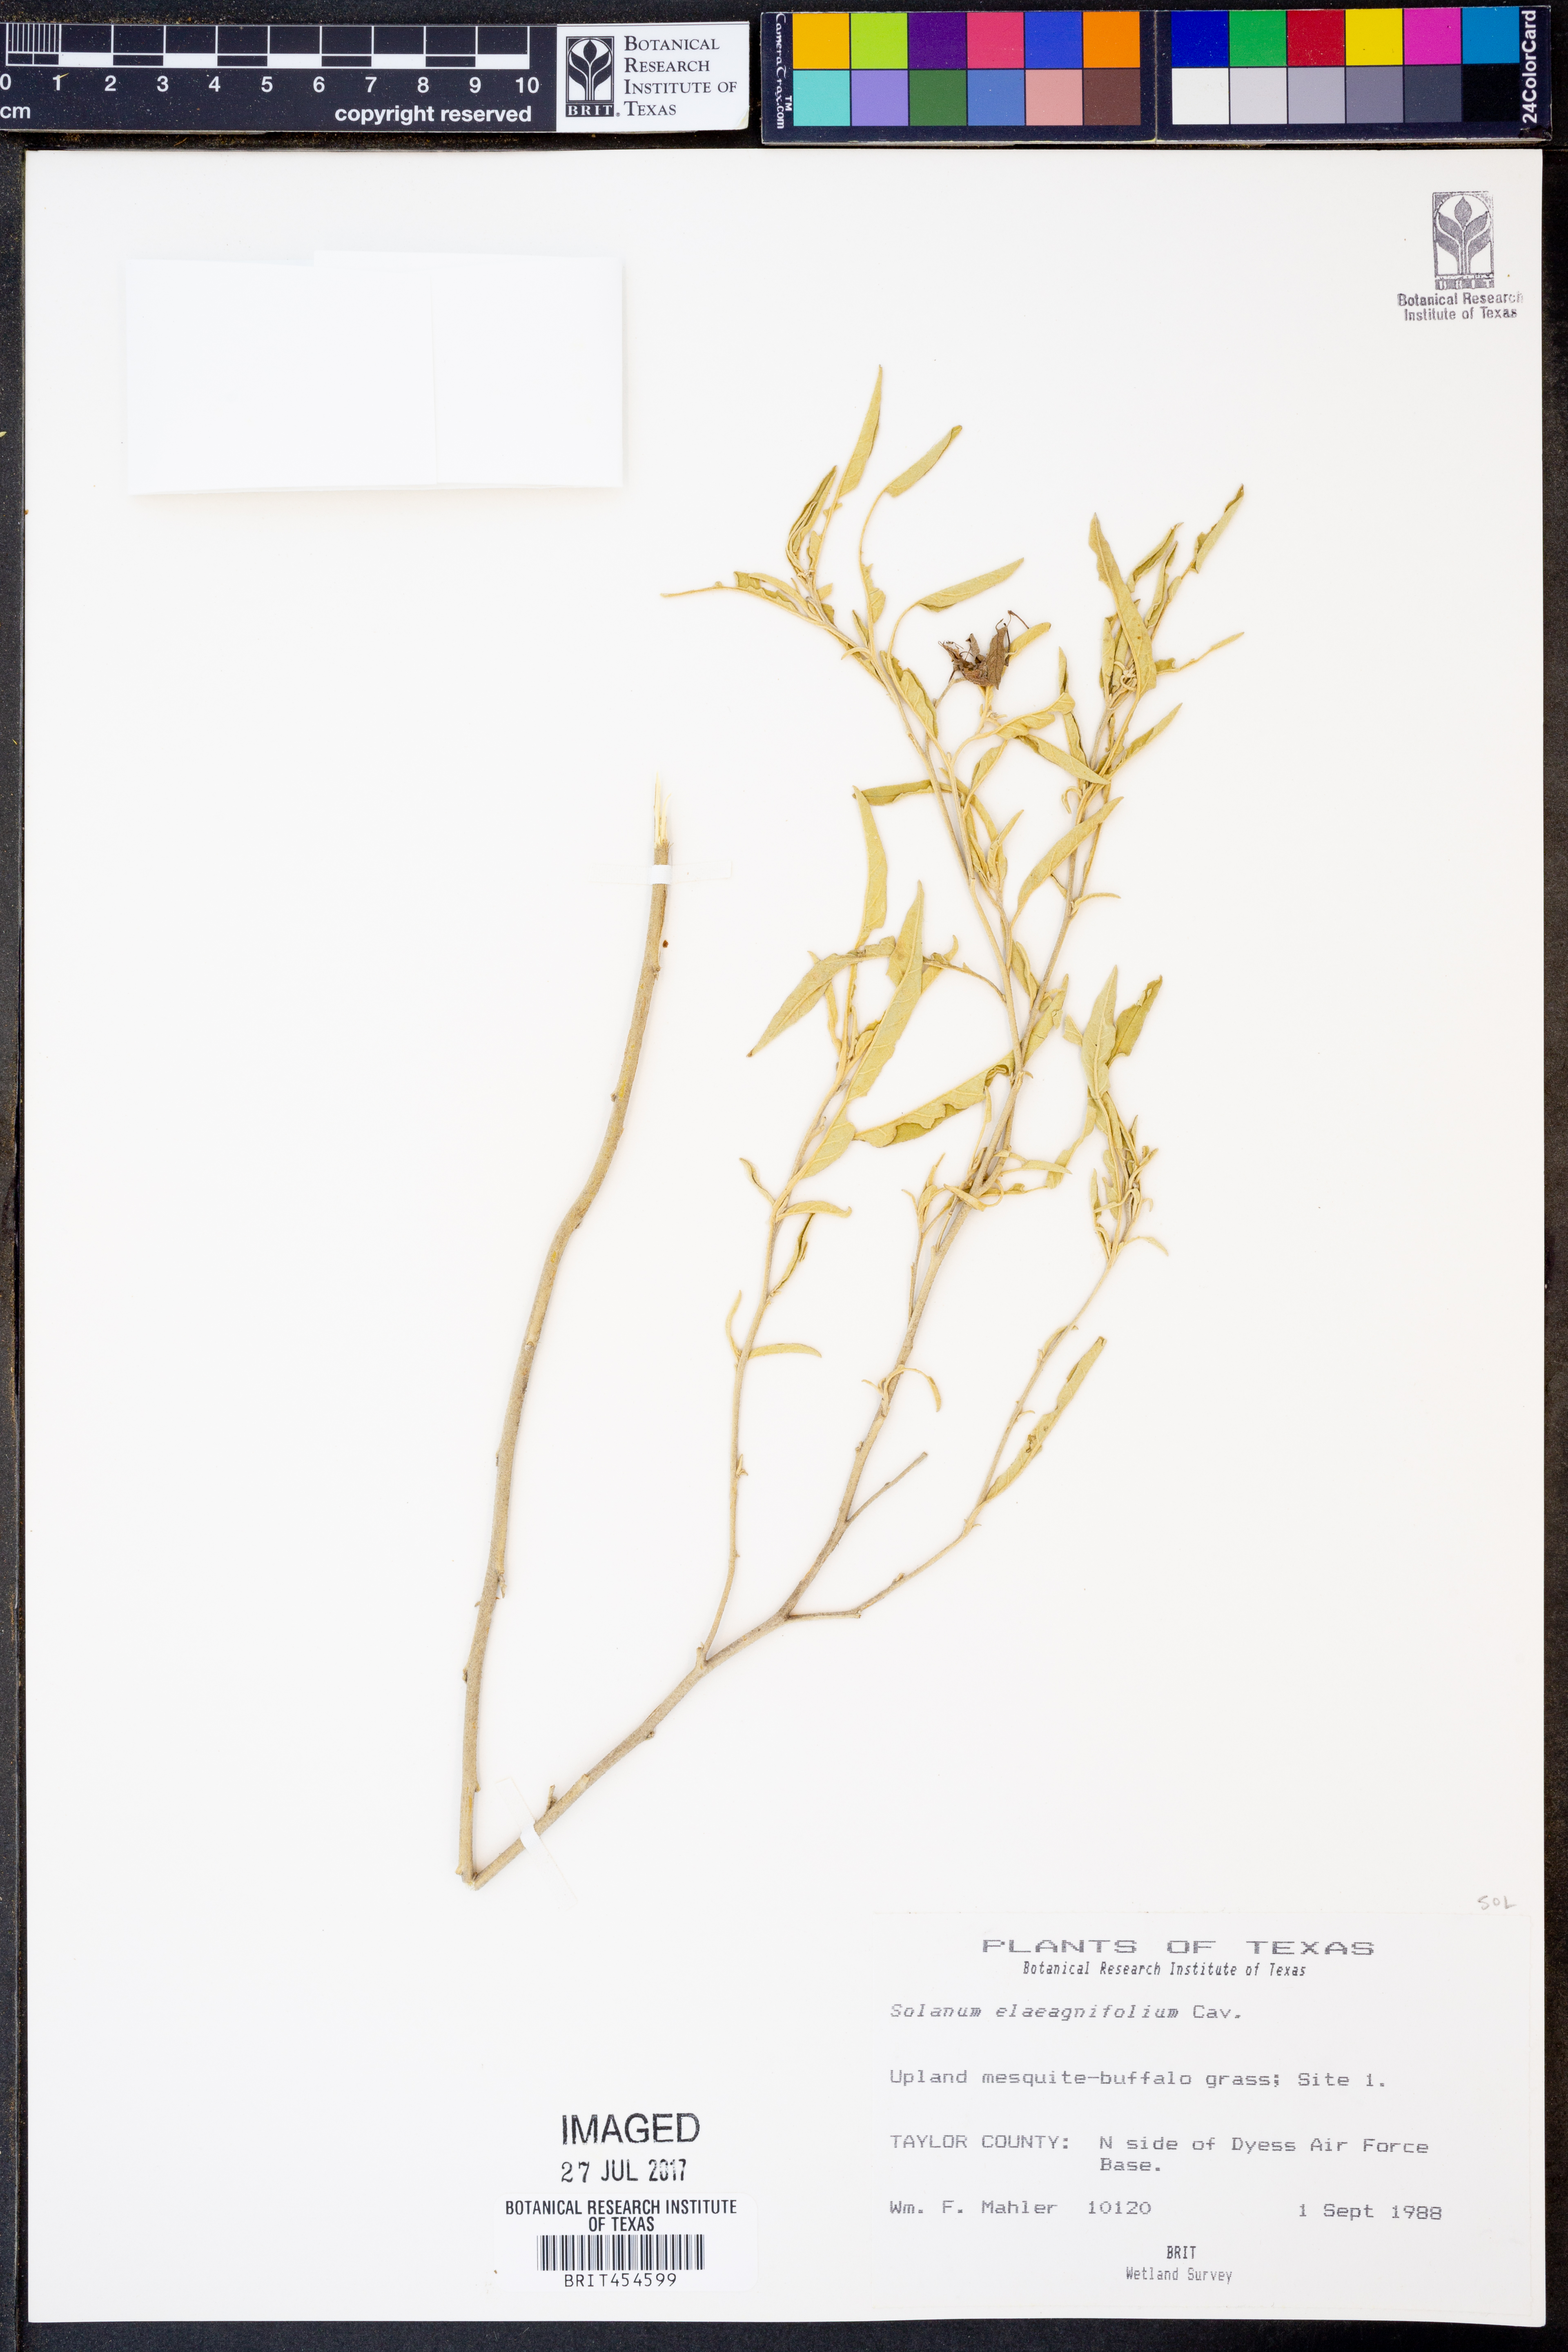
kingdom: Plantae
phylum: Tracheophyta
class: Magnoliopsida
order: Solanales
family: Solanaceae
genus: Solanum
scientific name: Solanum elaeagnifolium
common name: Silverleaf nightshade
